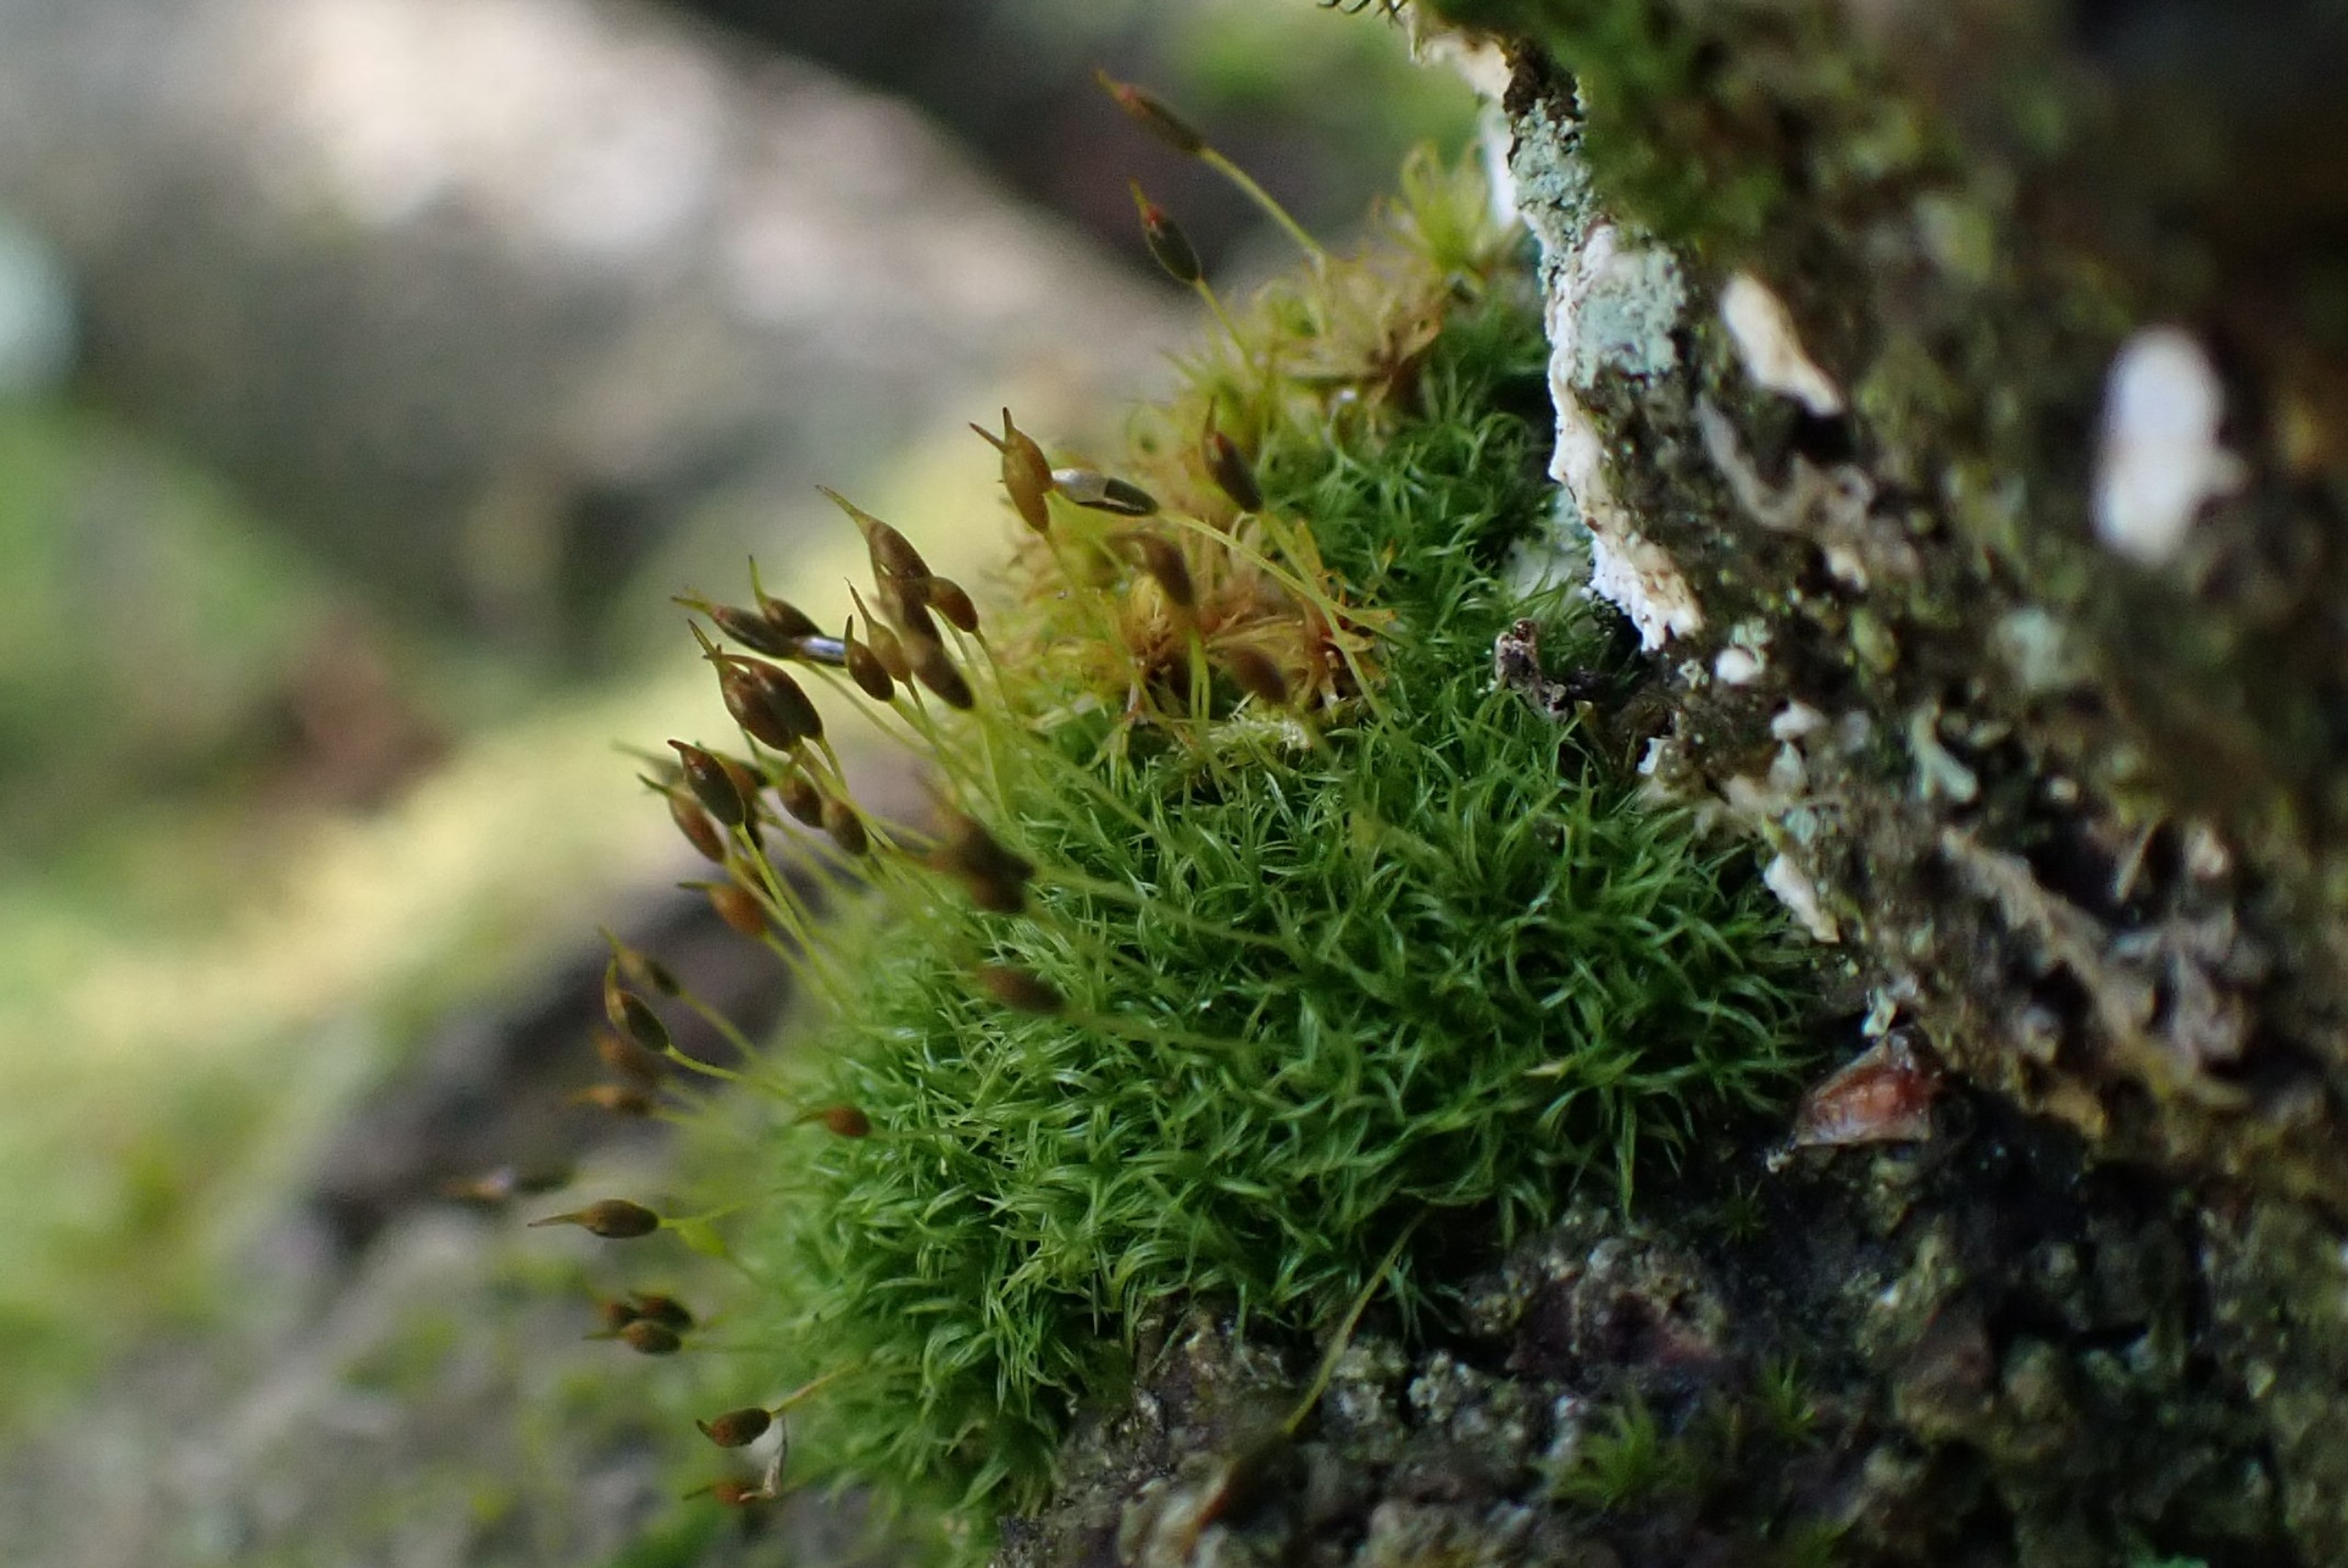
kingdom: Plantae
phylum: Bryophyta
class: Bryopsida
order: Dicranales
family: Rhabdoweisiaceae
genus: Dicranoweisia
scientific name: Dicranoweisia cirrata
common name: Almindelig krøltuemos
